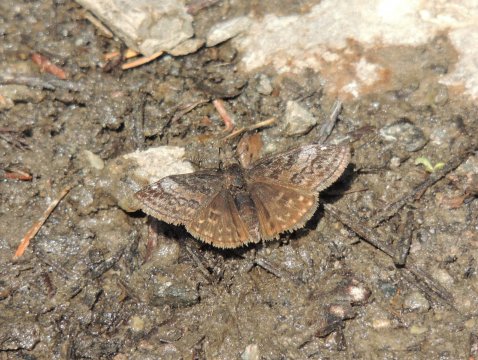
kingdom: Animalia
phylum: Arthropoda
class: Insecta
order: Lepidoptera
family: Hesperiidae
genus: Erynnis
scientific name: Erynnis icelus
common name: Dreamy Duskywing
